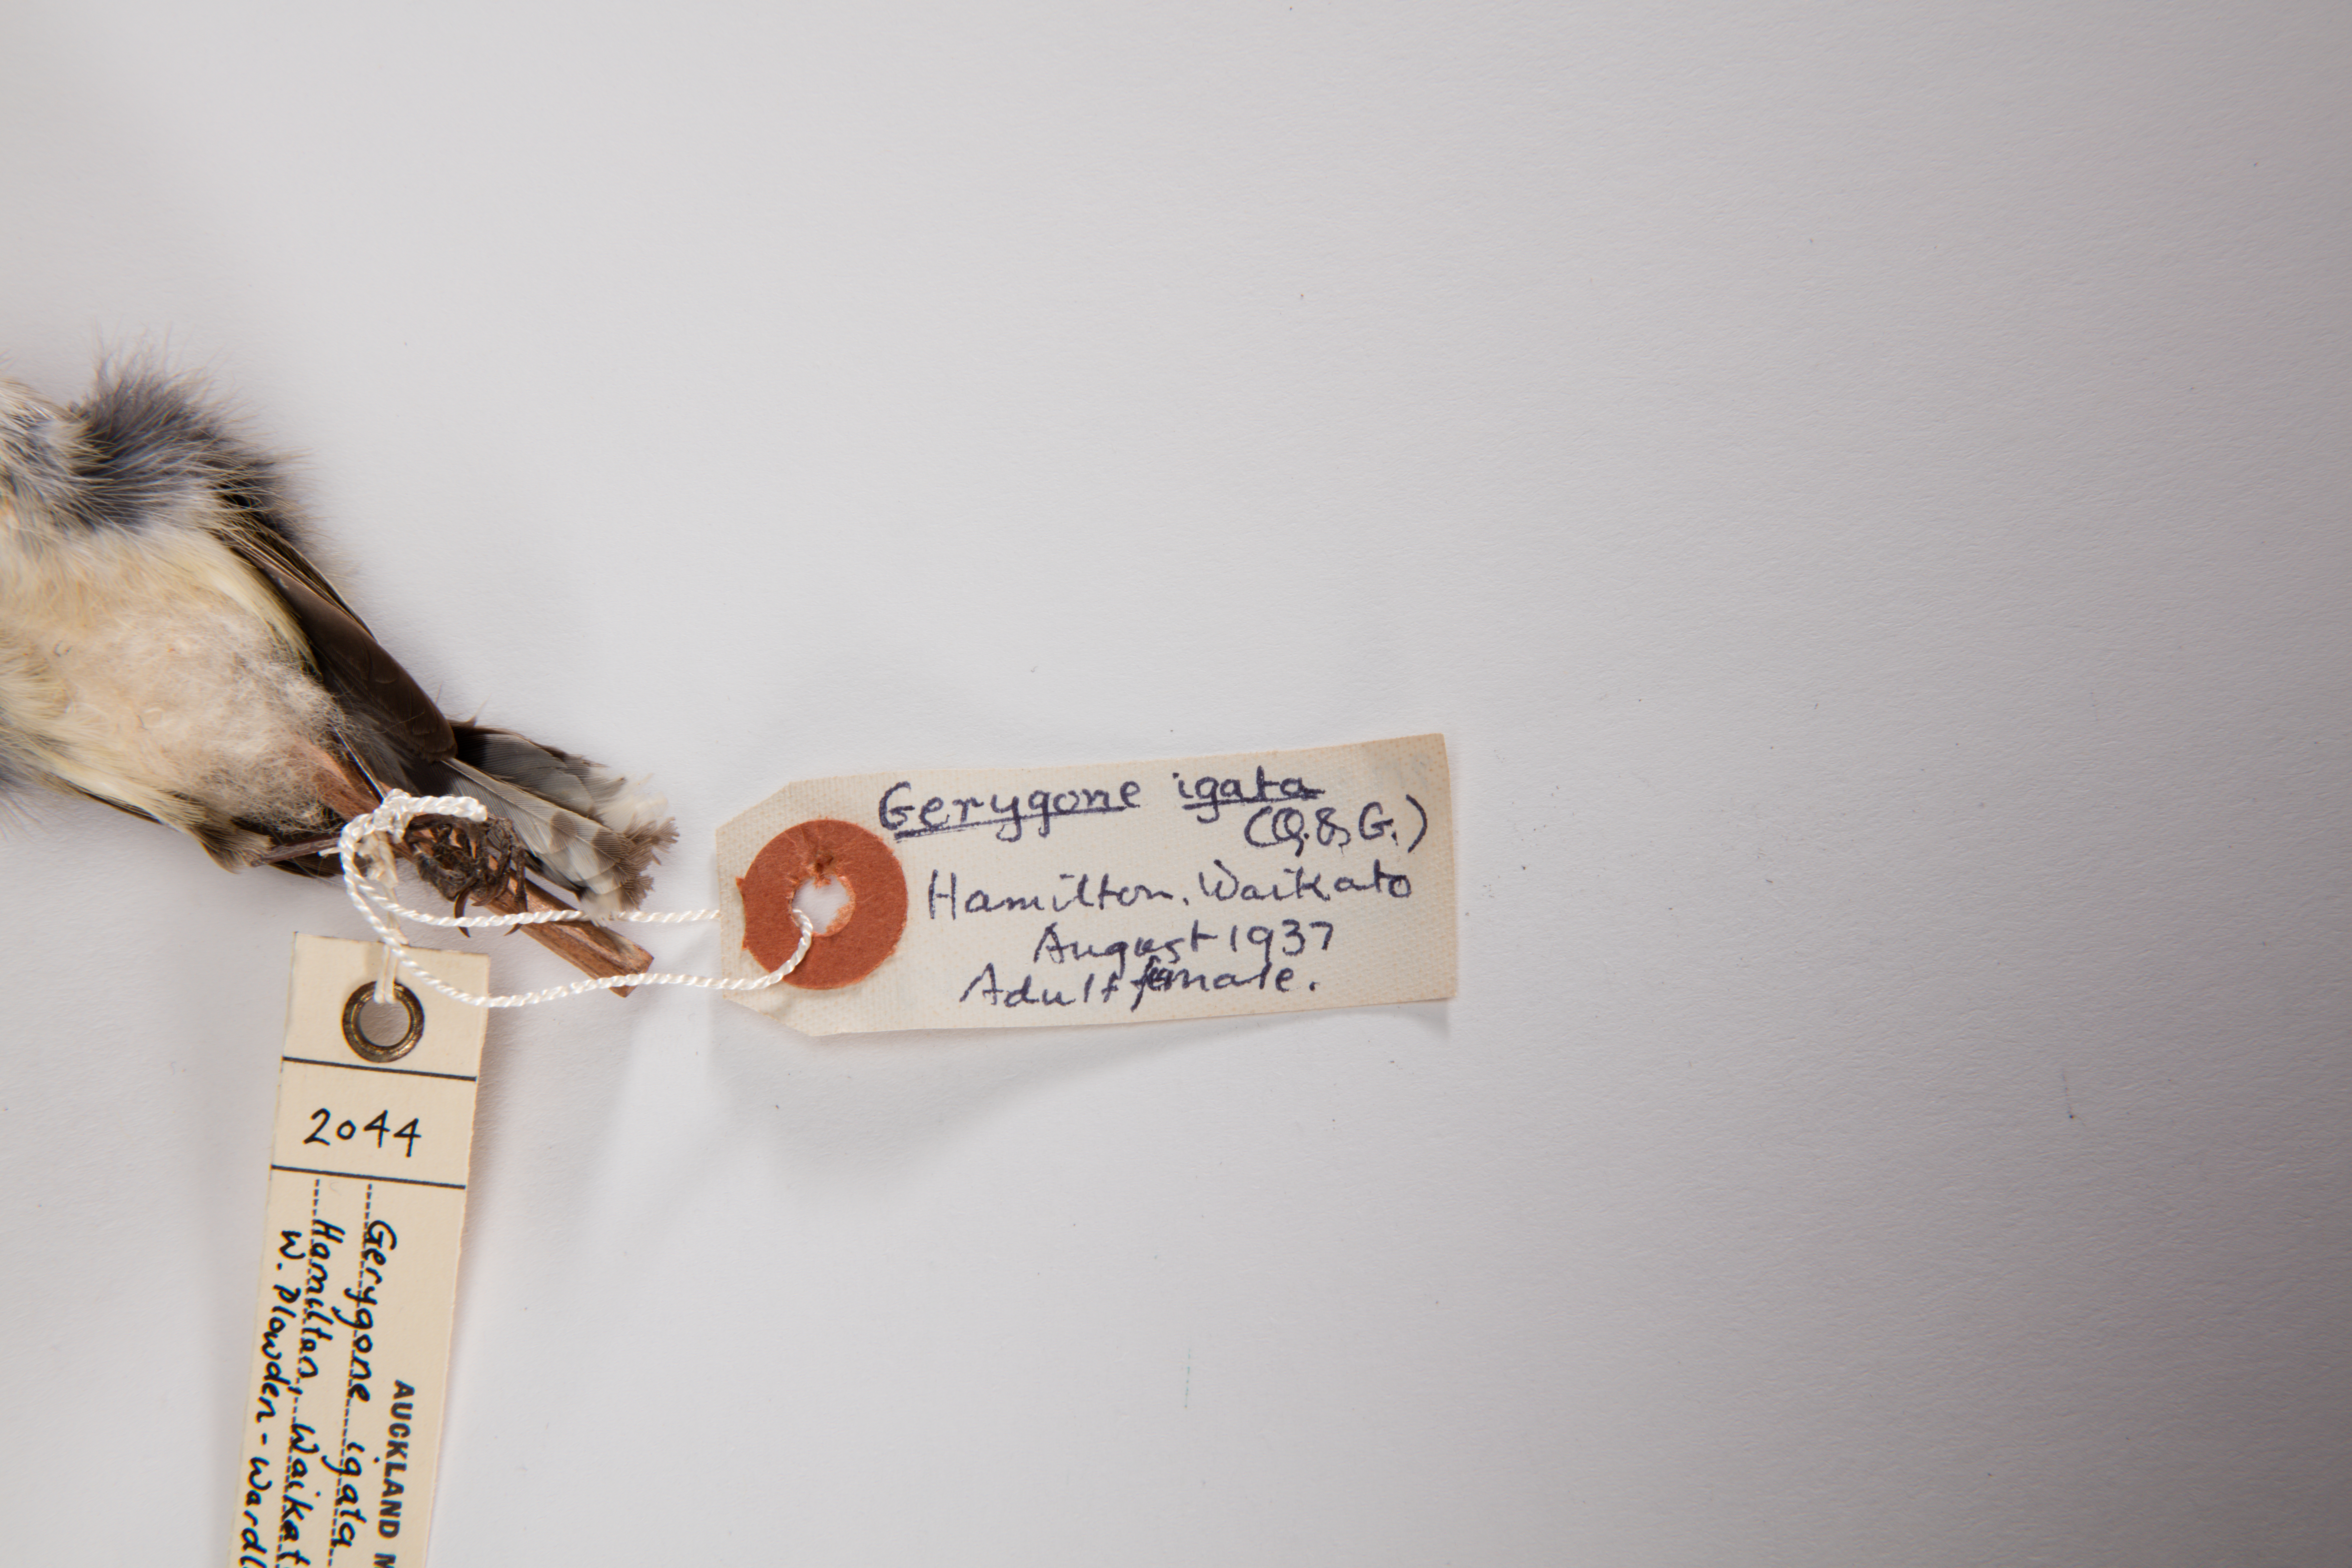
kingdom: Animalia
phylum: Chordata
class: Aves
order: Passeriformes
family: Acanthizidae
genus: Gerygone
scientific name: Gerygone igata
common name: Grey gerygone
